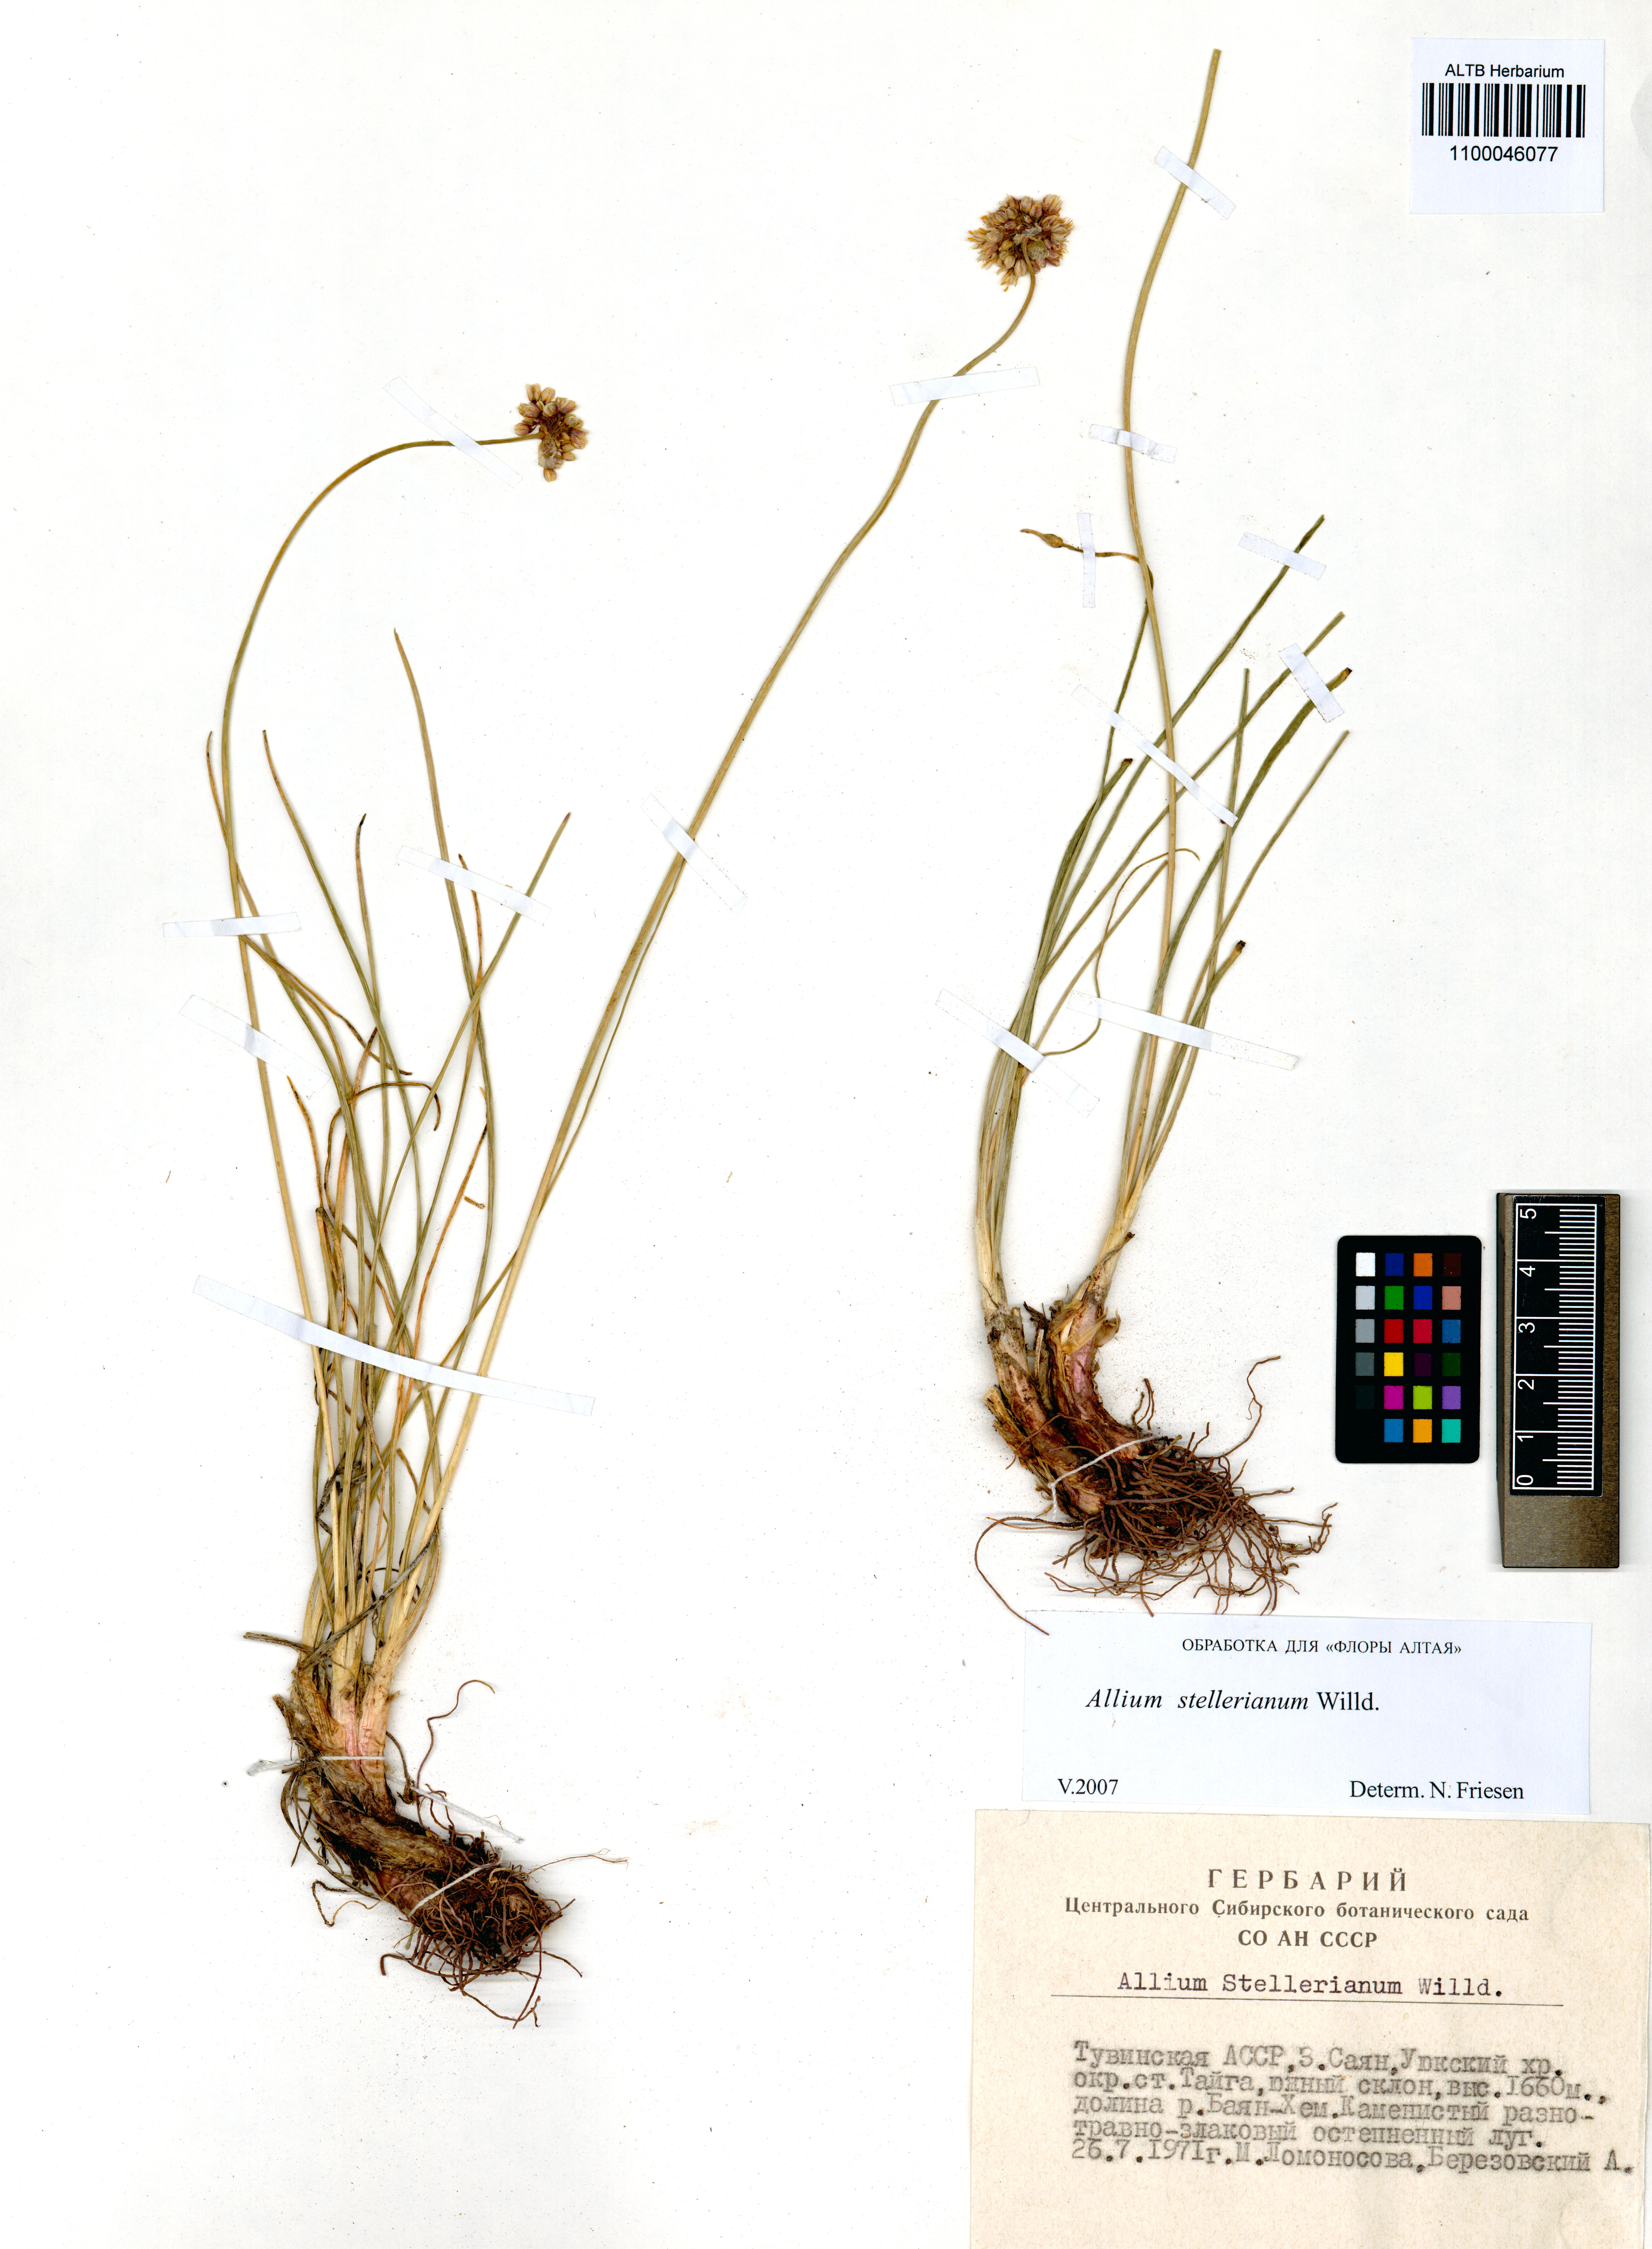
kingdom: Plantae
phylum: Tracheophyta
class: Liliopsida
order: Asparagales
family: Amaryllidaceae
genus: Allium
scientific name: Allium stellerianum
